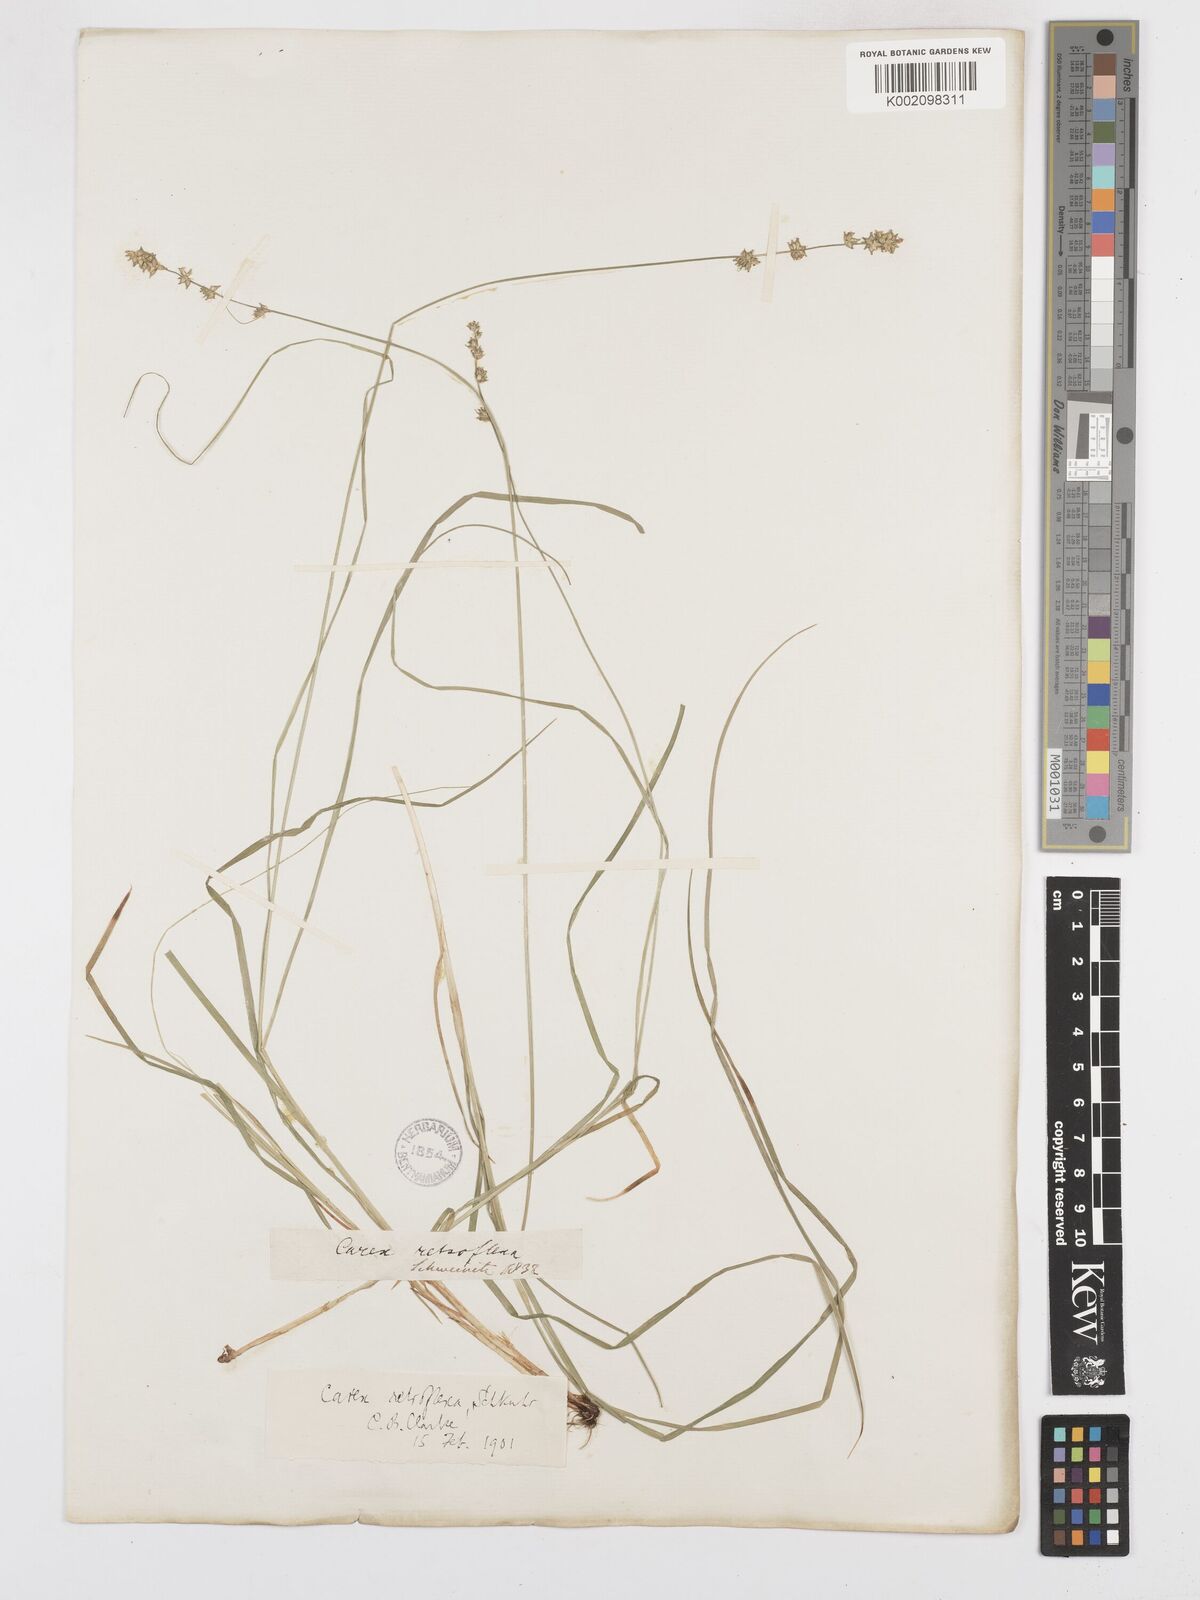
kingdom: Plantae
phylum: Tracheophyta
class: Liliopsida
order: Poales
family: Cyperaceae
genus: Carex
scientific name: Carex retroflexa
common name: Reflexed sedge
